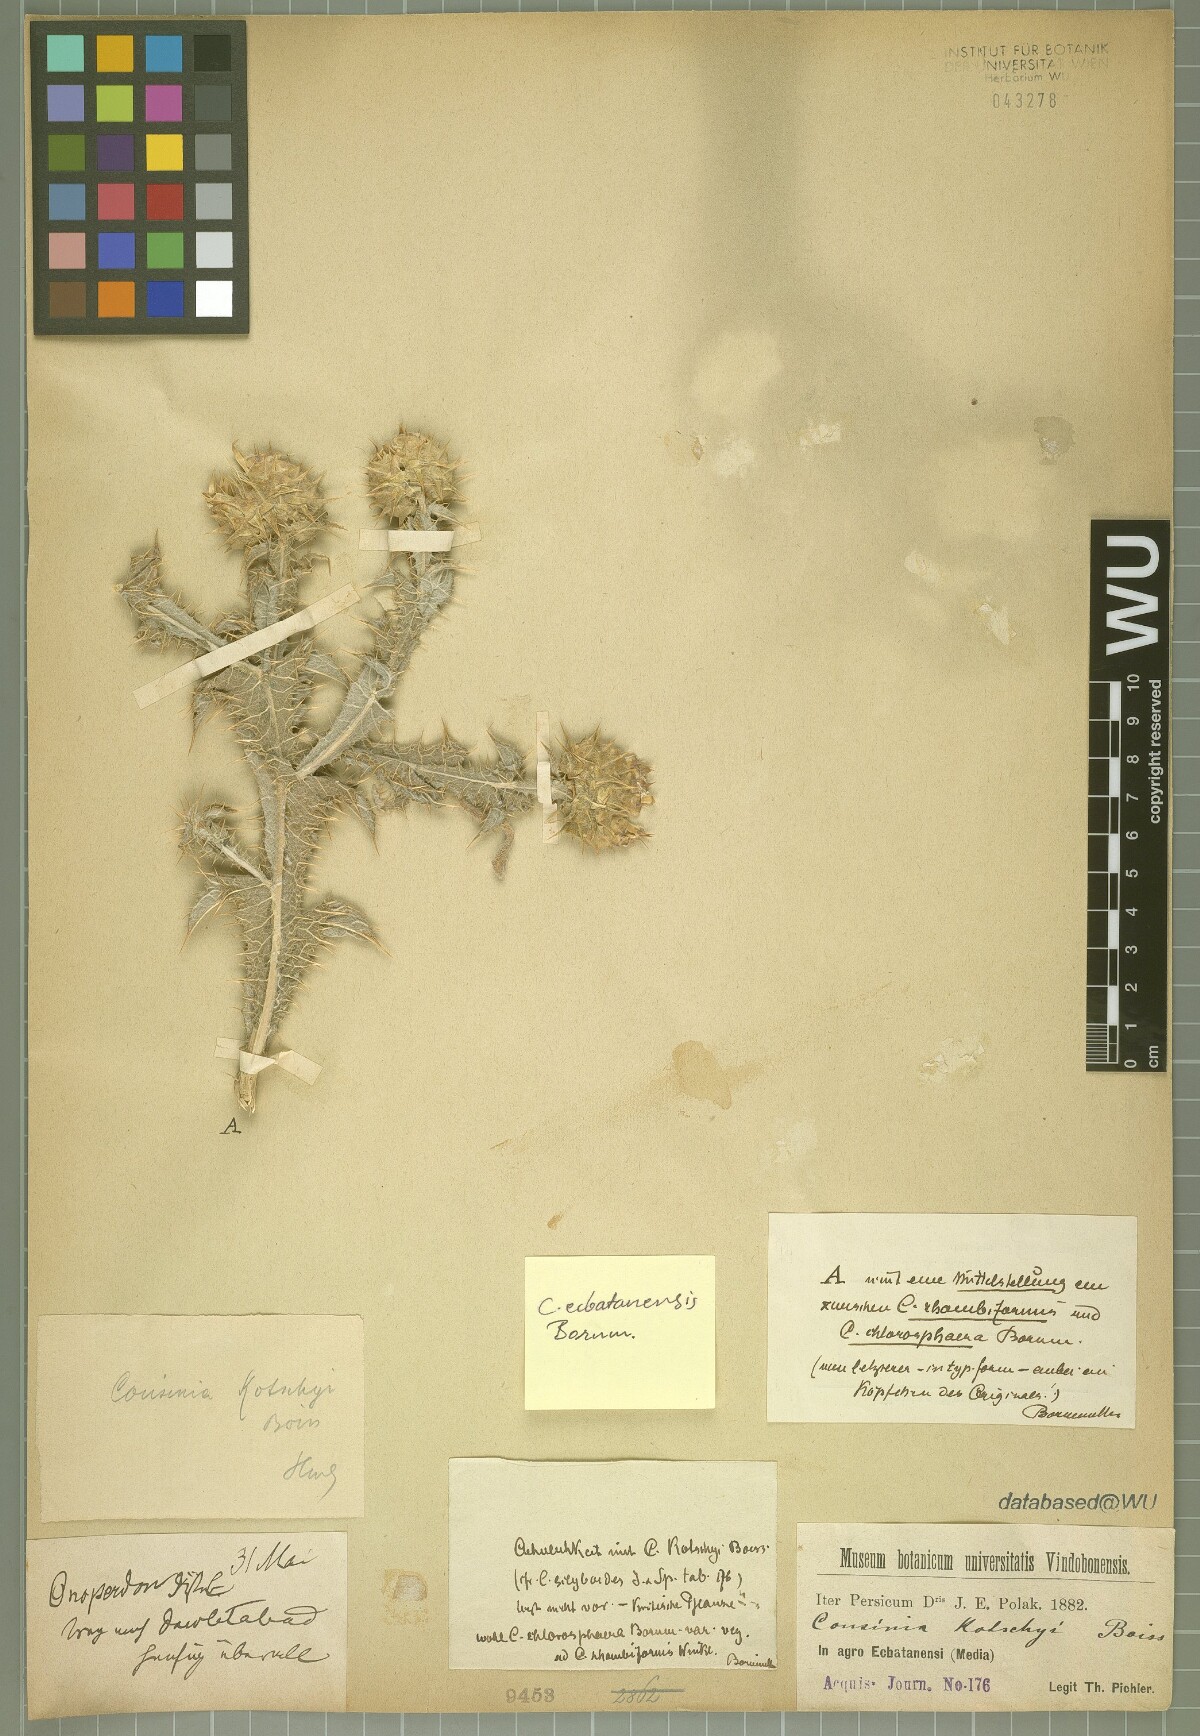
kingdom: Plantae
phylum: Tracheophyta
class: Magnoliopsida
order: Asterales
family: Asteraceae
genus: Cousinia
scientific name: Cousinia ecbatanensis
